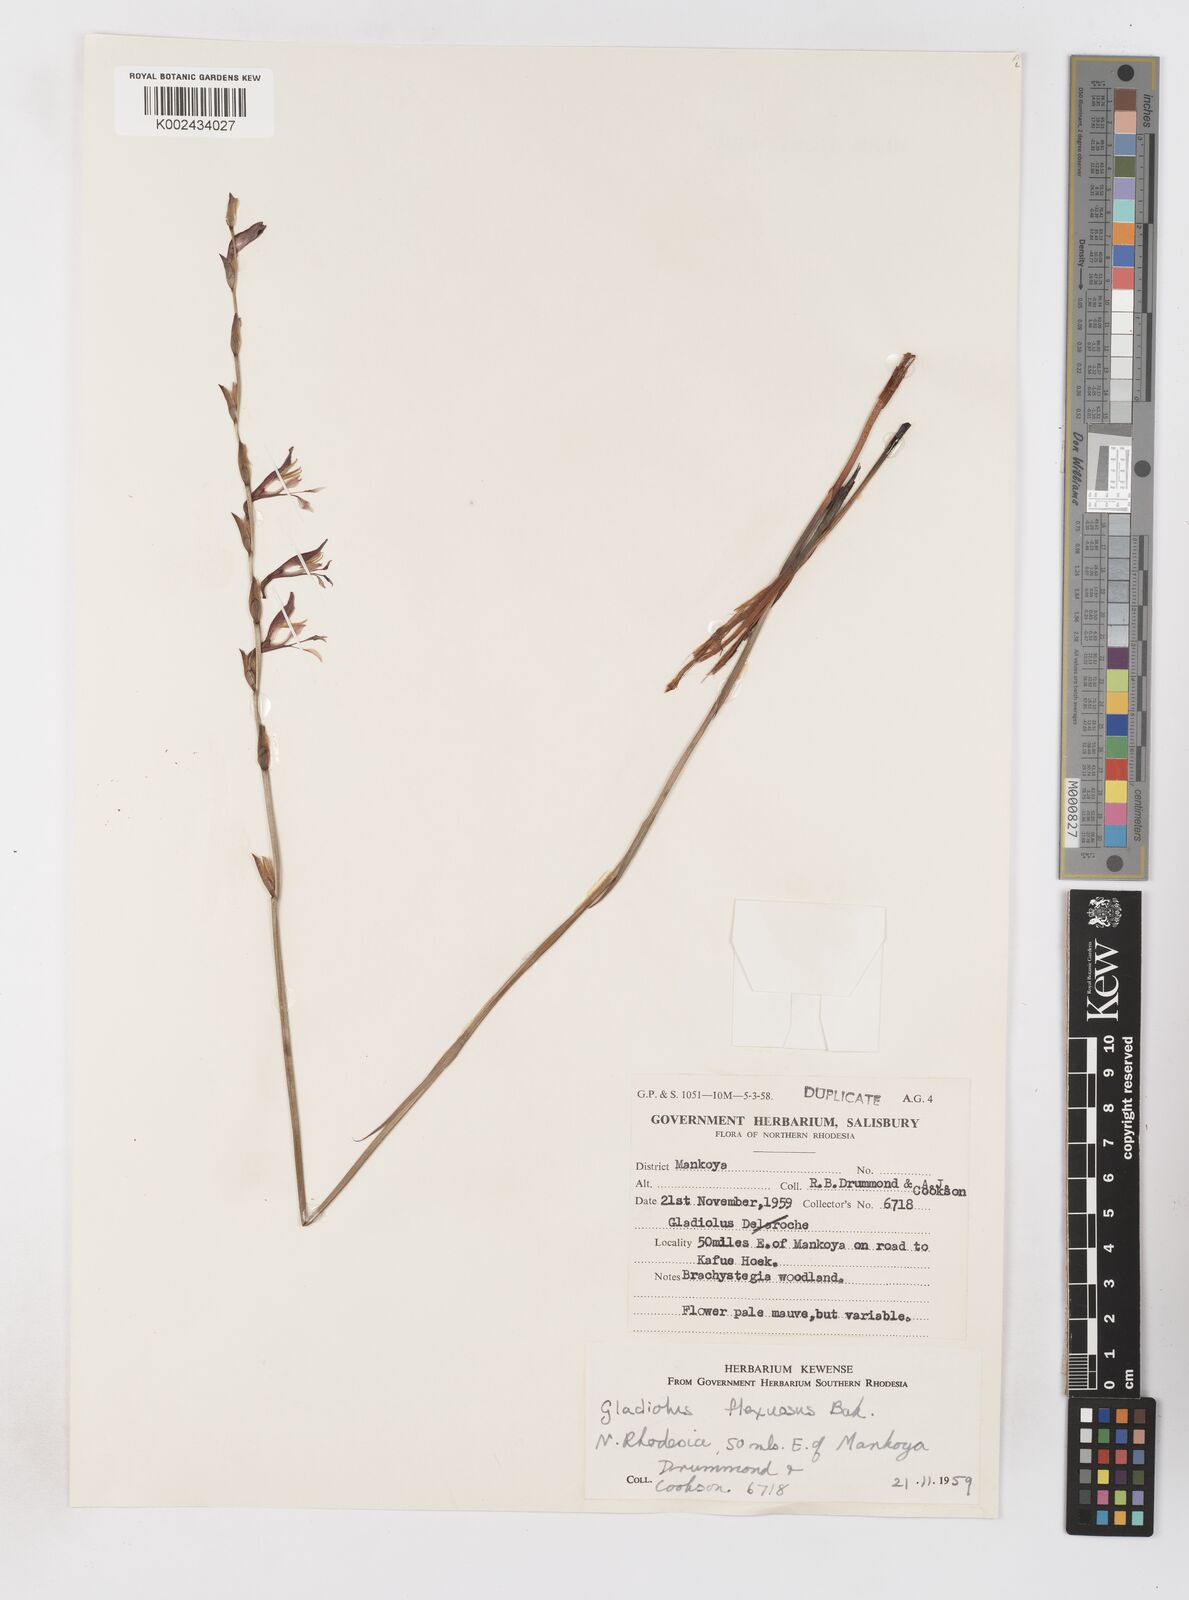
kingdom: Plantae
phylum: Tracheophyta
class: Liliopsida
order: Asparagales
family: Iridaceae
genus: Gladiolus
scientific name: Gladiolus atropurpureus
